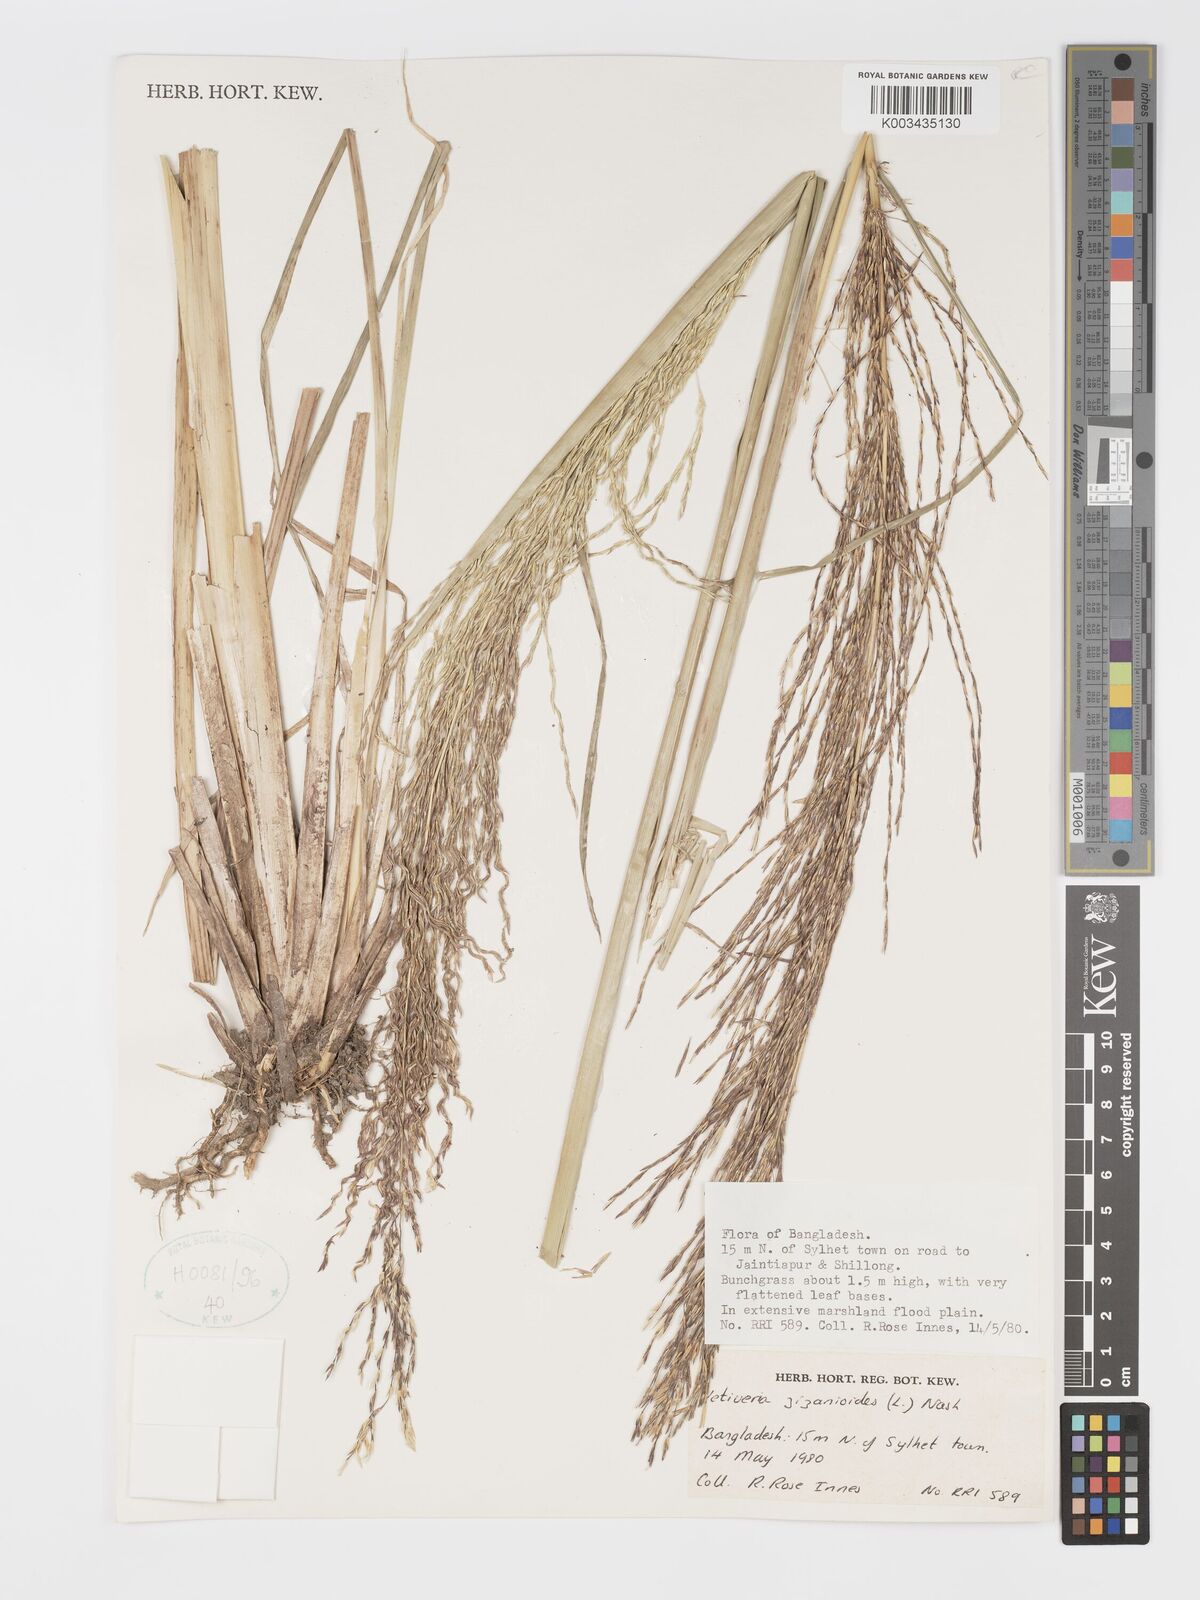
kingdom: Plantae
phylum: Tracheophyta
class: Liliopsida
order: Poales
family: Poaceae
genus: Chrysopogon
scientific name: Chrysopogon zizanioides
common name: False beardgrass
